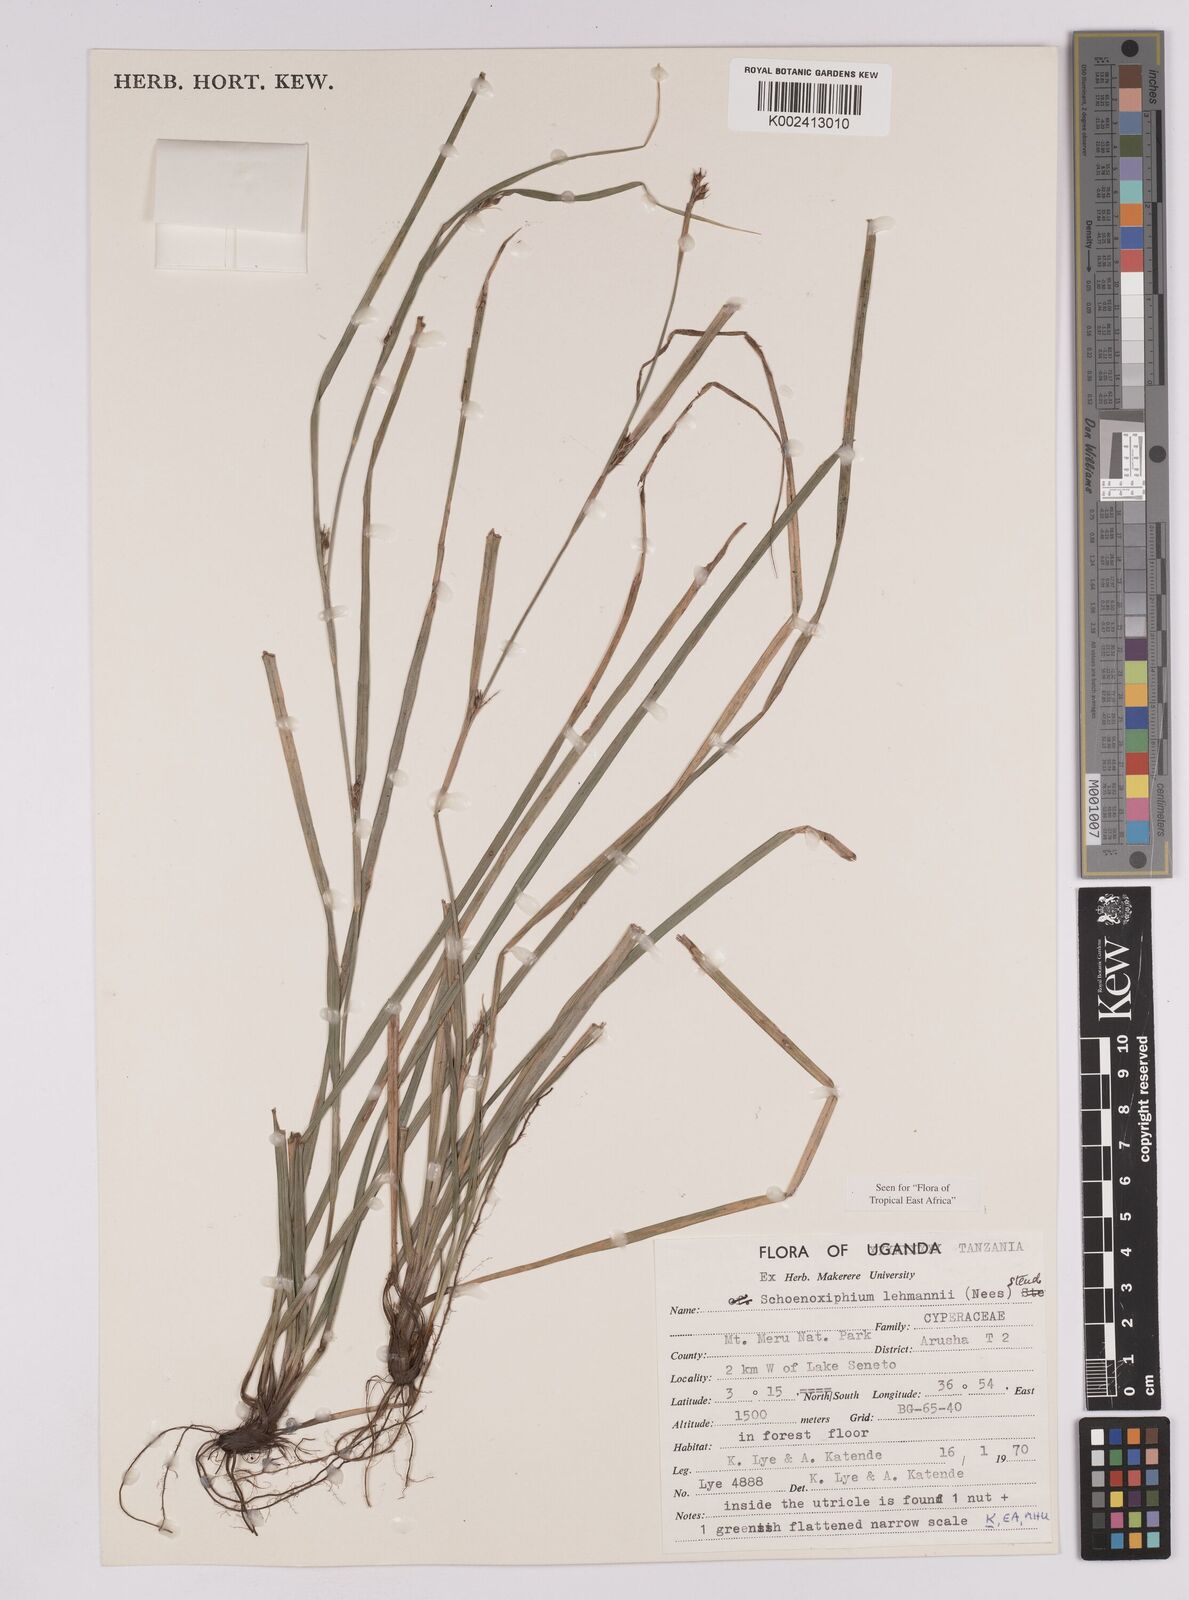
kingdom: Plantae
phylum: Tracheophyta
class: Liliopsida
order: Poales
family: Cyperaceae
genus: Carex
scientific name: Carex uhligii
